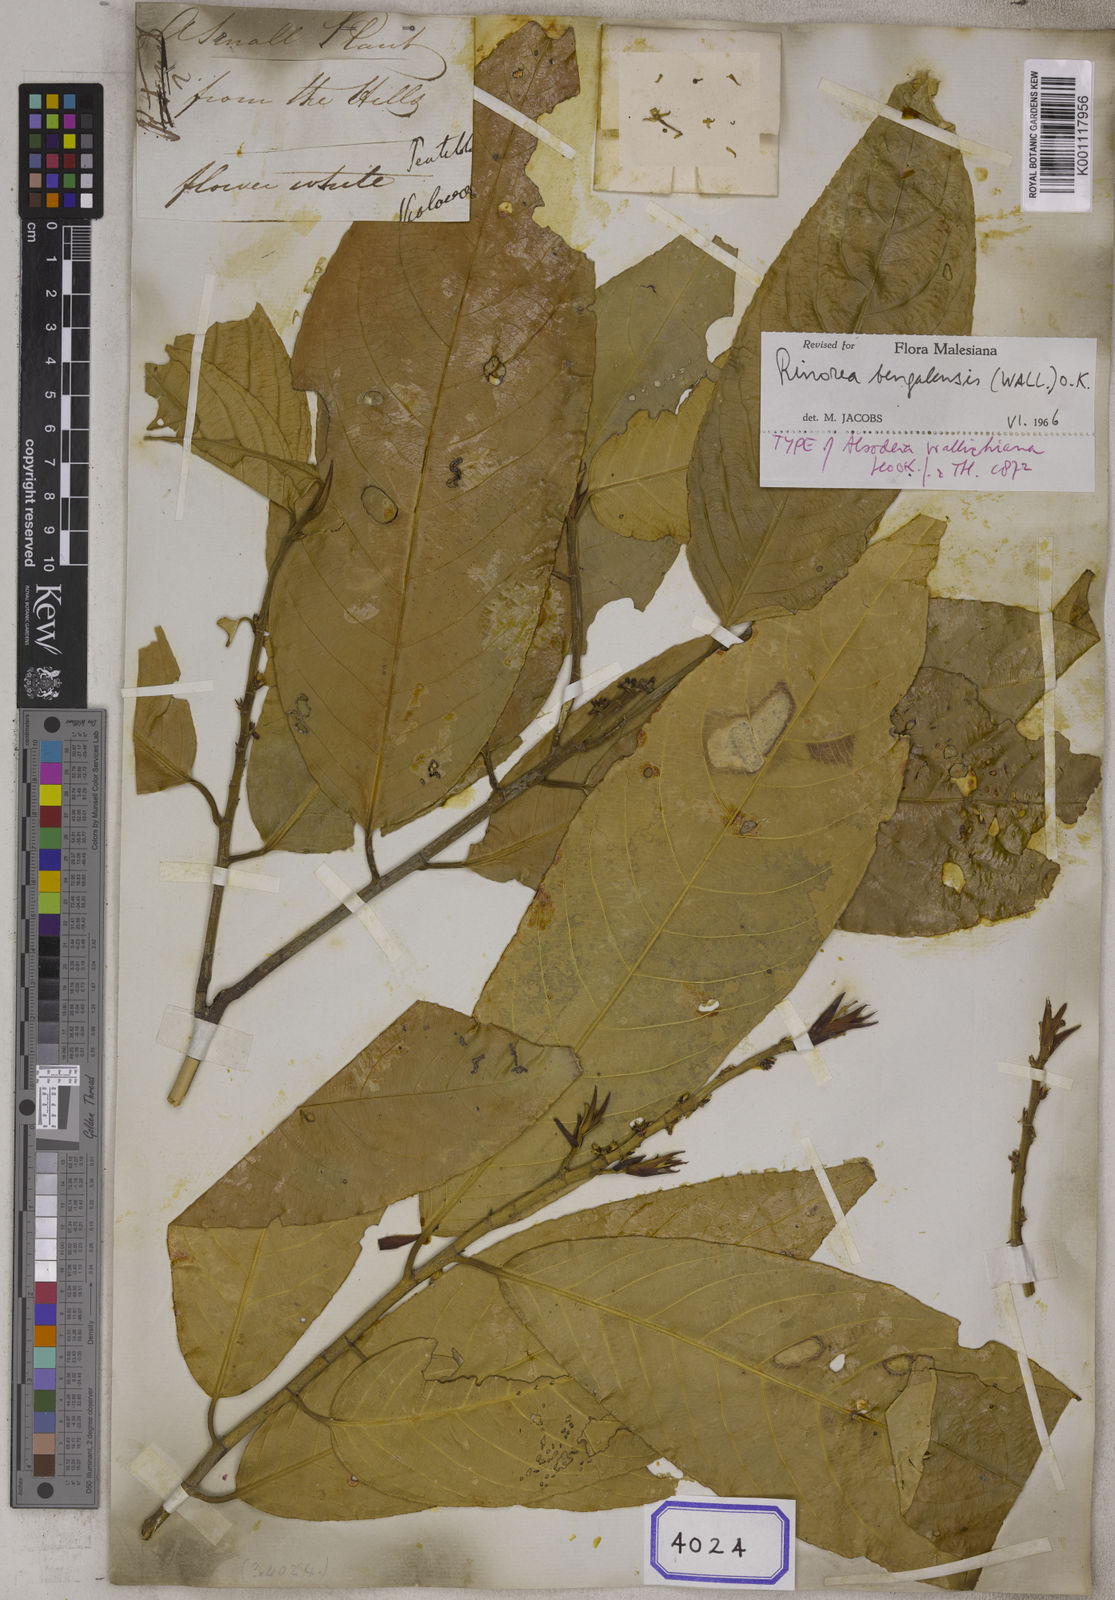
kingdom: Plantae
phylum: Tracheophyta
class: Magnoliopsida
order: Malpighiales
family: Violaceae
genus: Rinorea
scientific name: Rinorea
